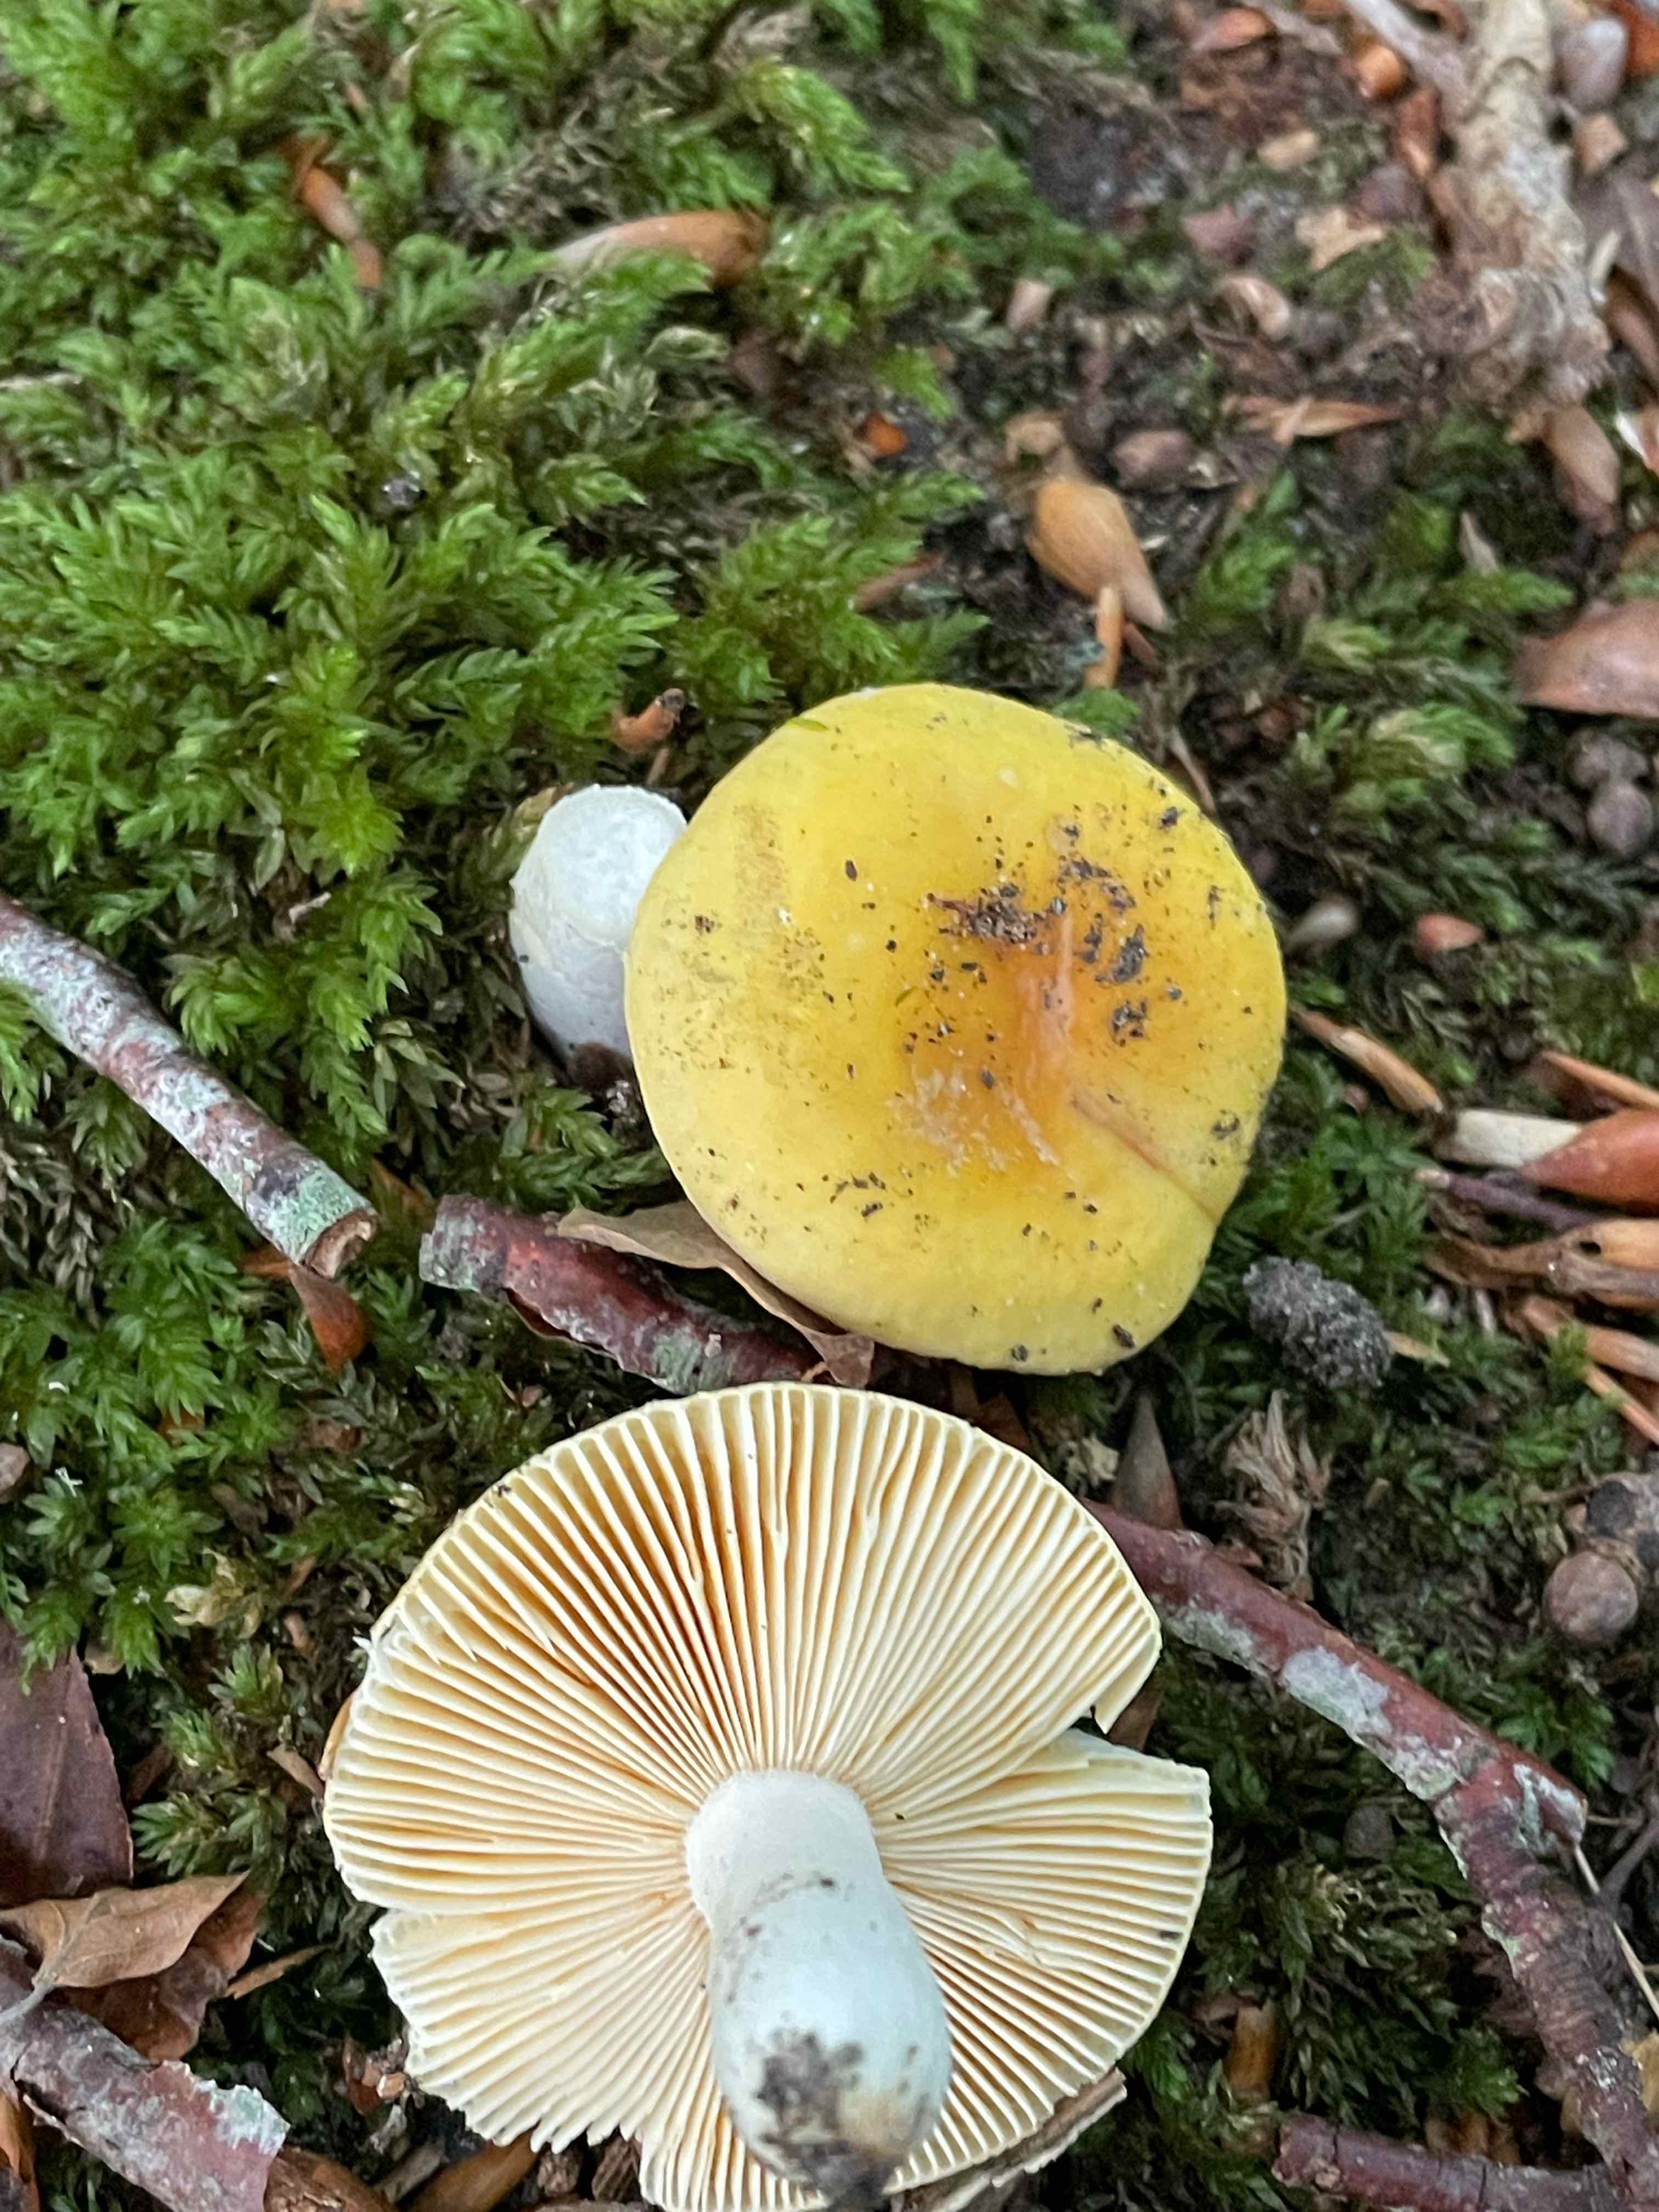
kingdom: Fungi
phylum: Basidiomycota
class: Agaricomycetes
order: Russulales
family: Russulaceae
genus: Russula
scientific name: Russula risigallina
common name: abrikos-skørhat
